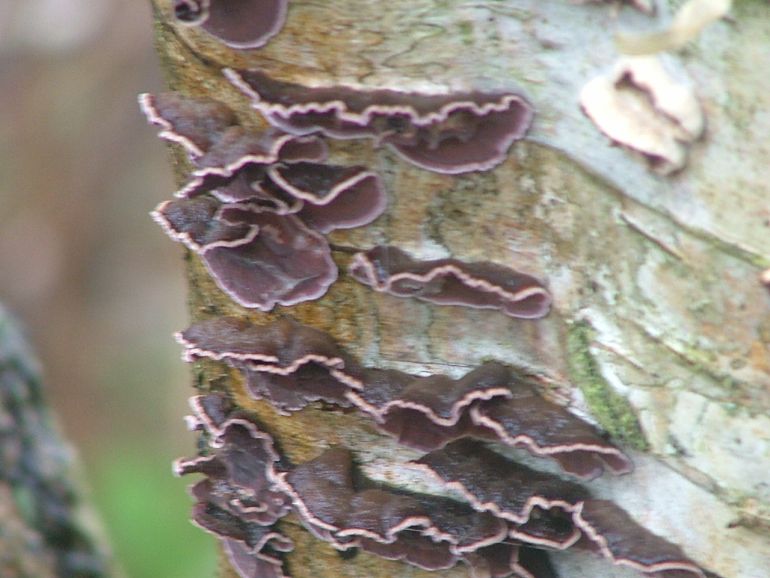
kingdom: Fungi
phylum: Basidiomycota
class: Agaricomycetes
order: Agaricales
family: Cyphellaceae
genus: Chondrostereum
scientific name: Chondrostereum purpureum
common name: purpurlædersvamp
